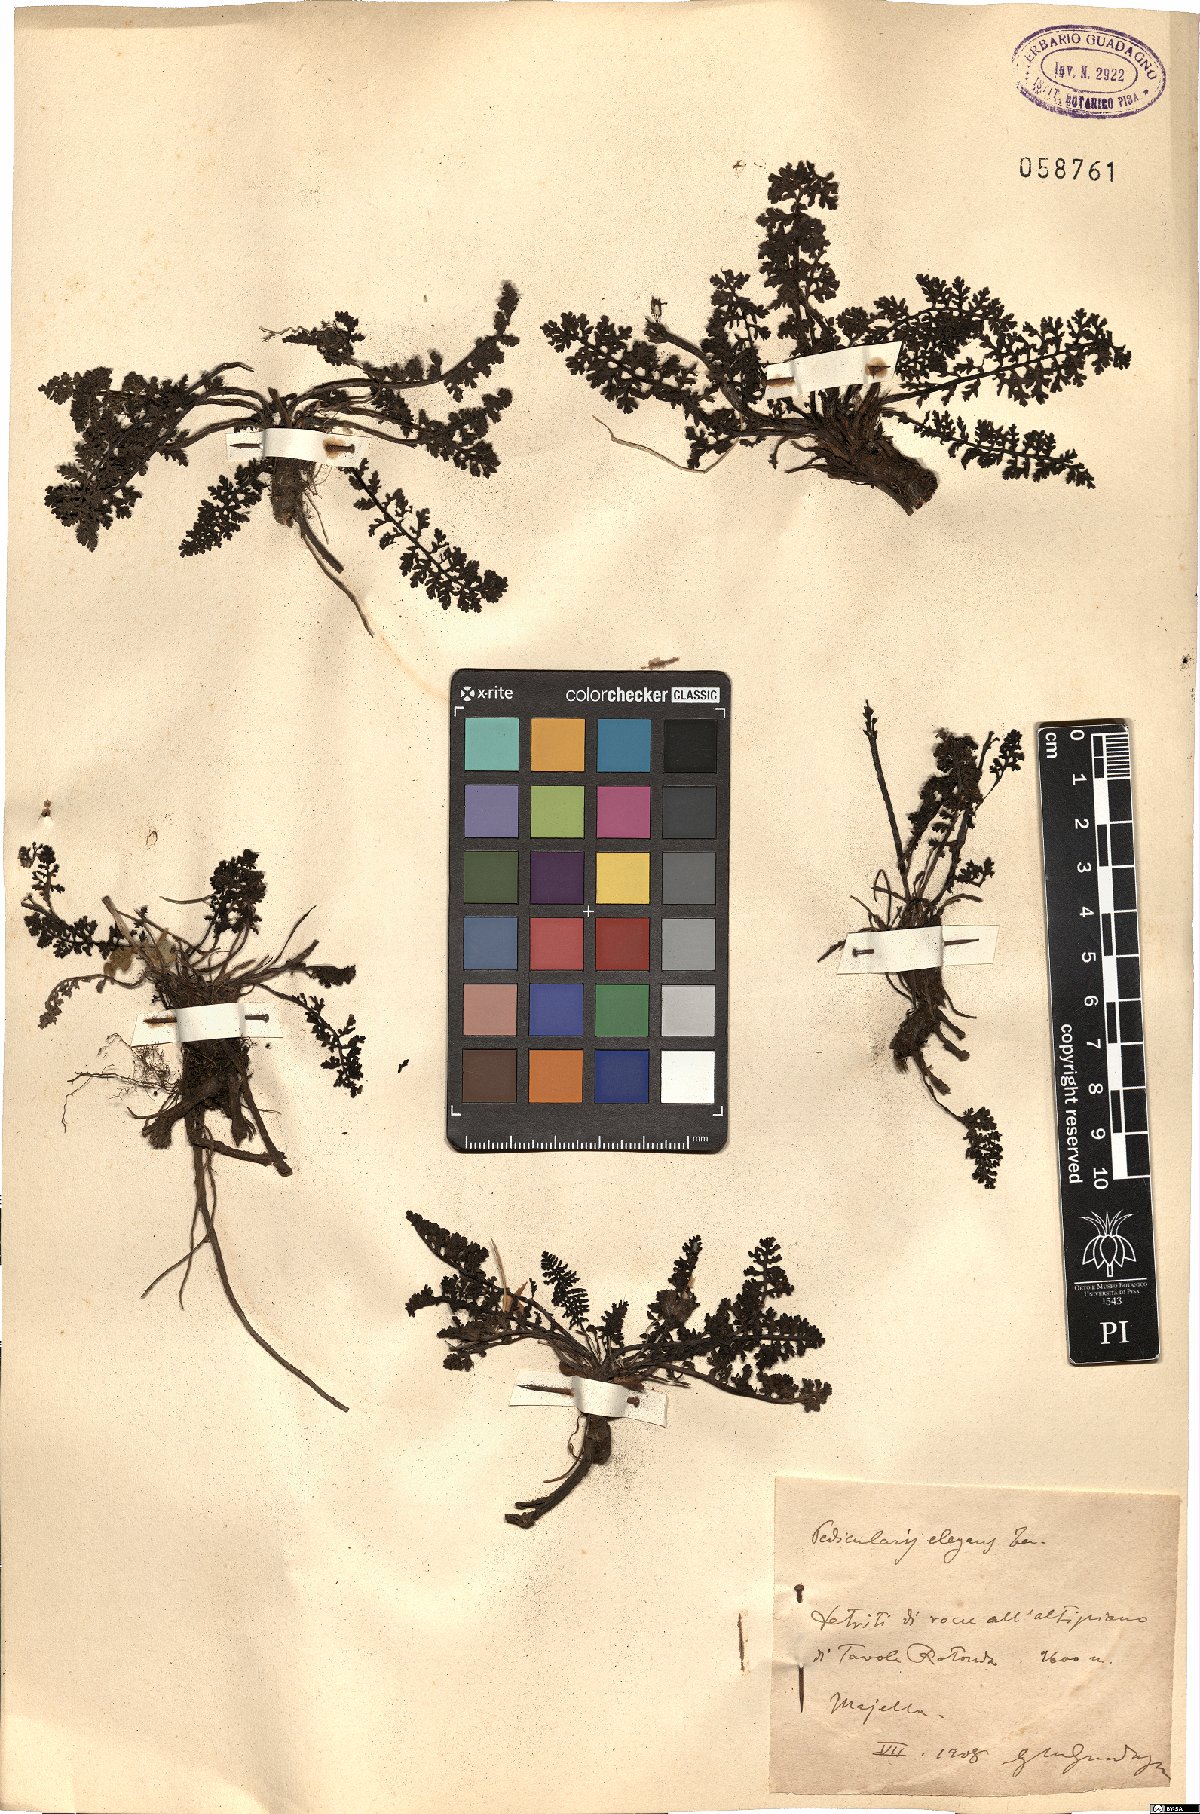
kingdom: Plantae
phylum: Tracheophyta
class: Magnoliopsida
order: Lamiales
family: Orobanchaceae
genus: Pedicularis
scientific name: Pedicularis elegans
